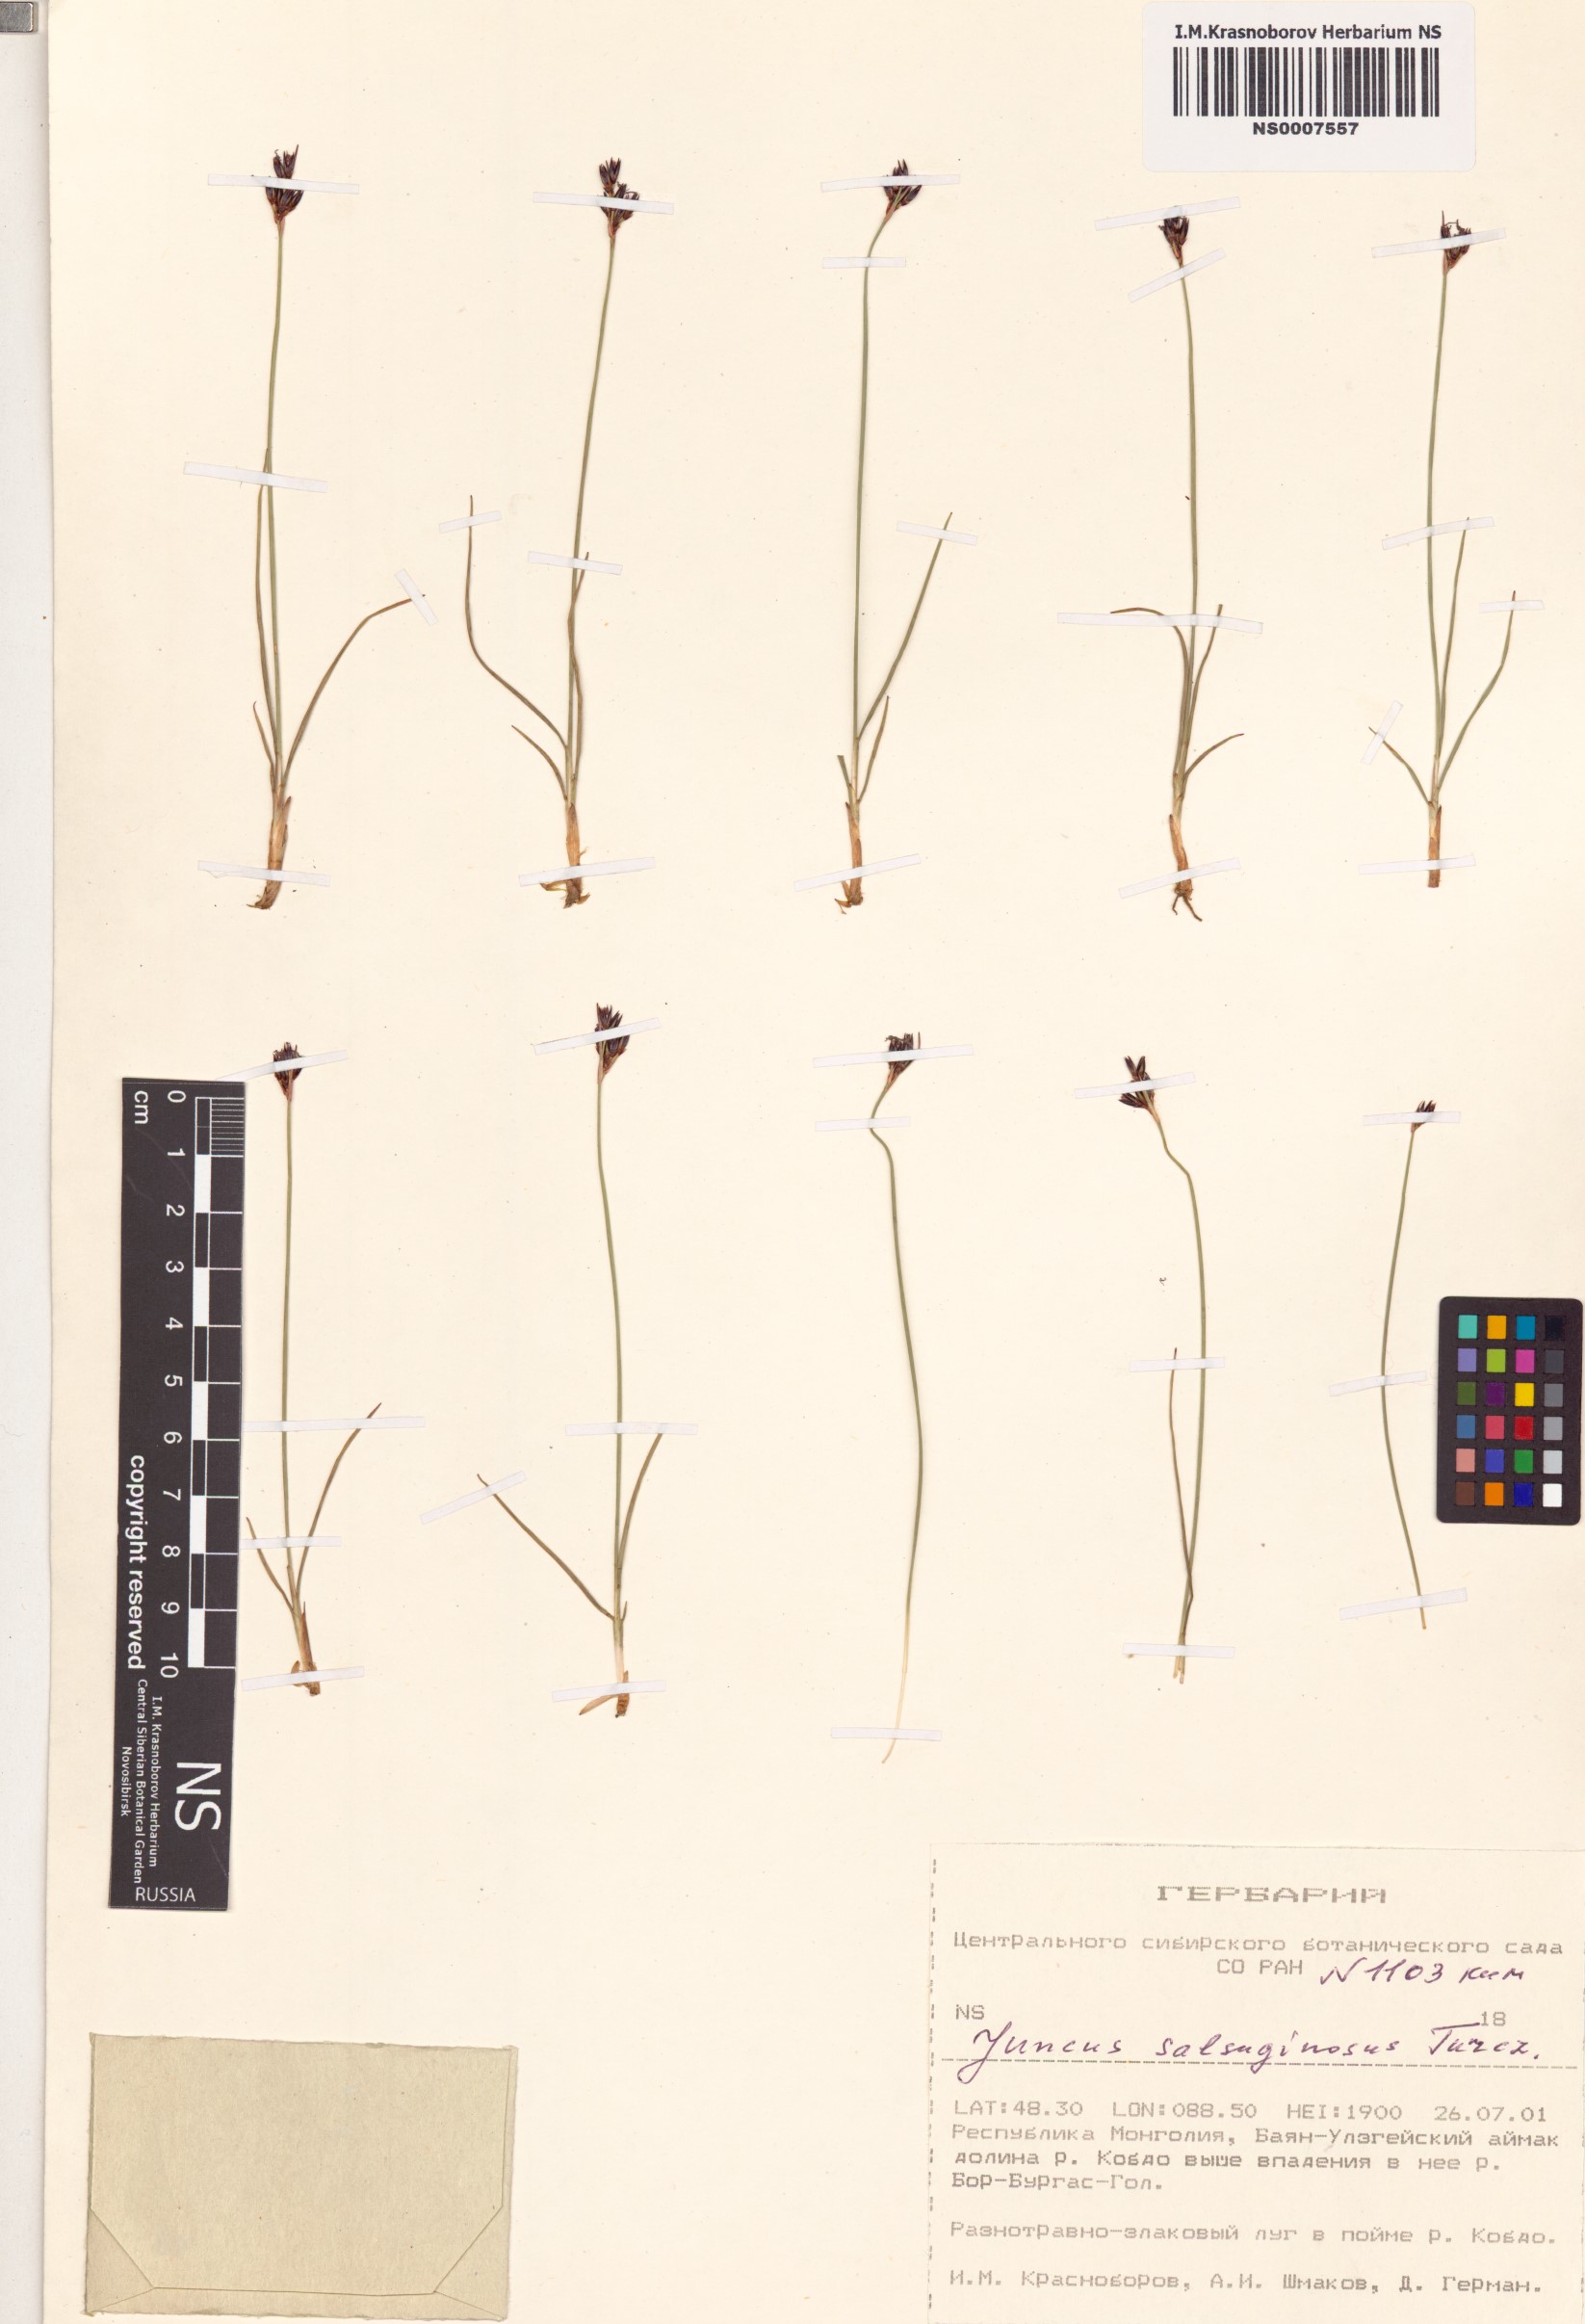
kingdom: Plantae
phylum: Tracheophyta
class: Liliopsida
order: Poales
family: Juncaceae
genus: Juncus
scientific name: Juncus salsuginosus
